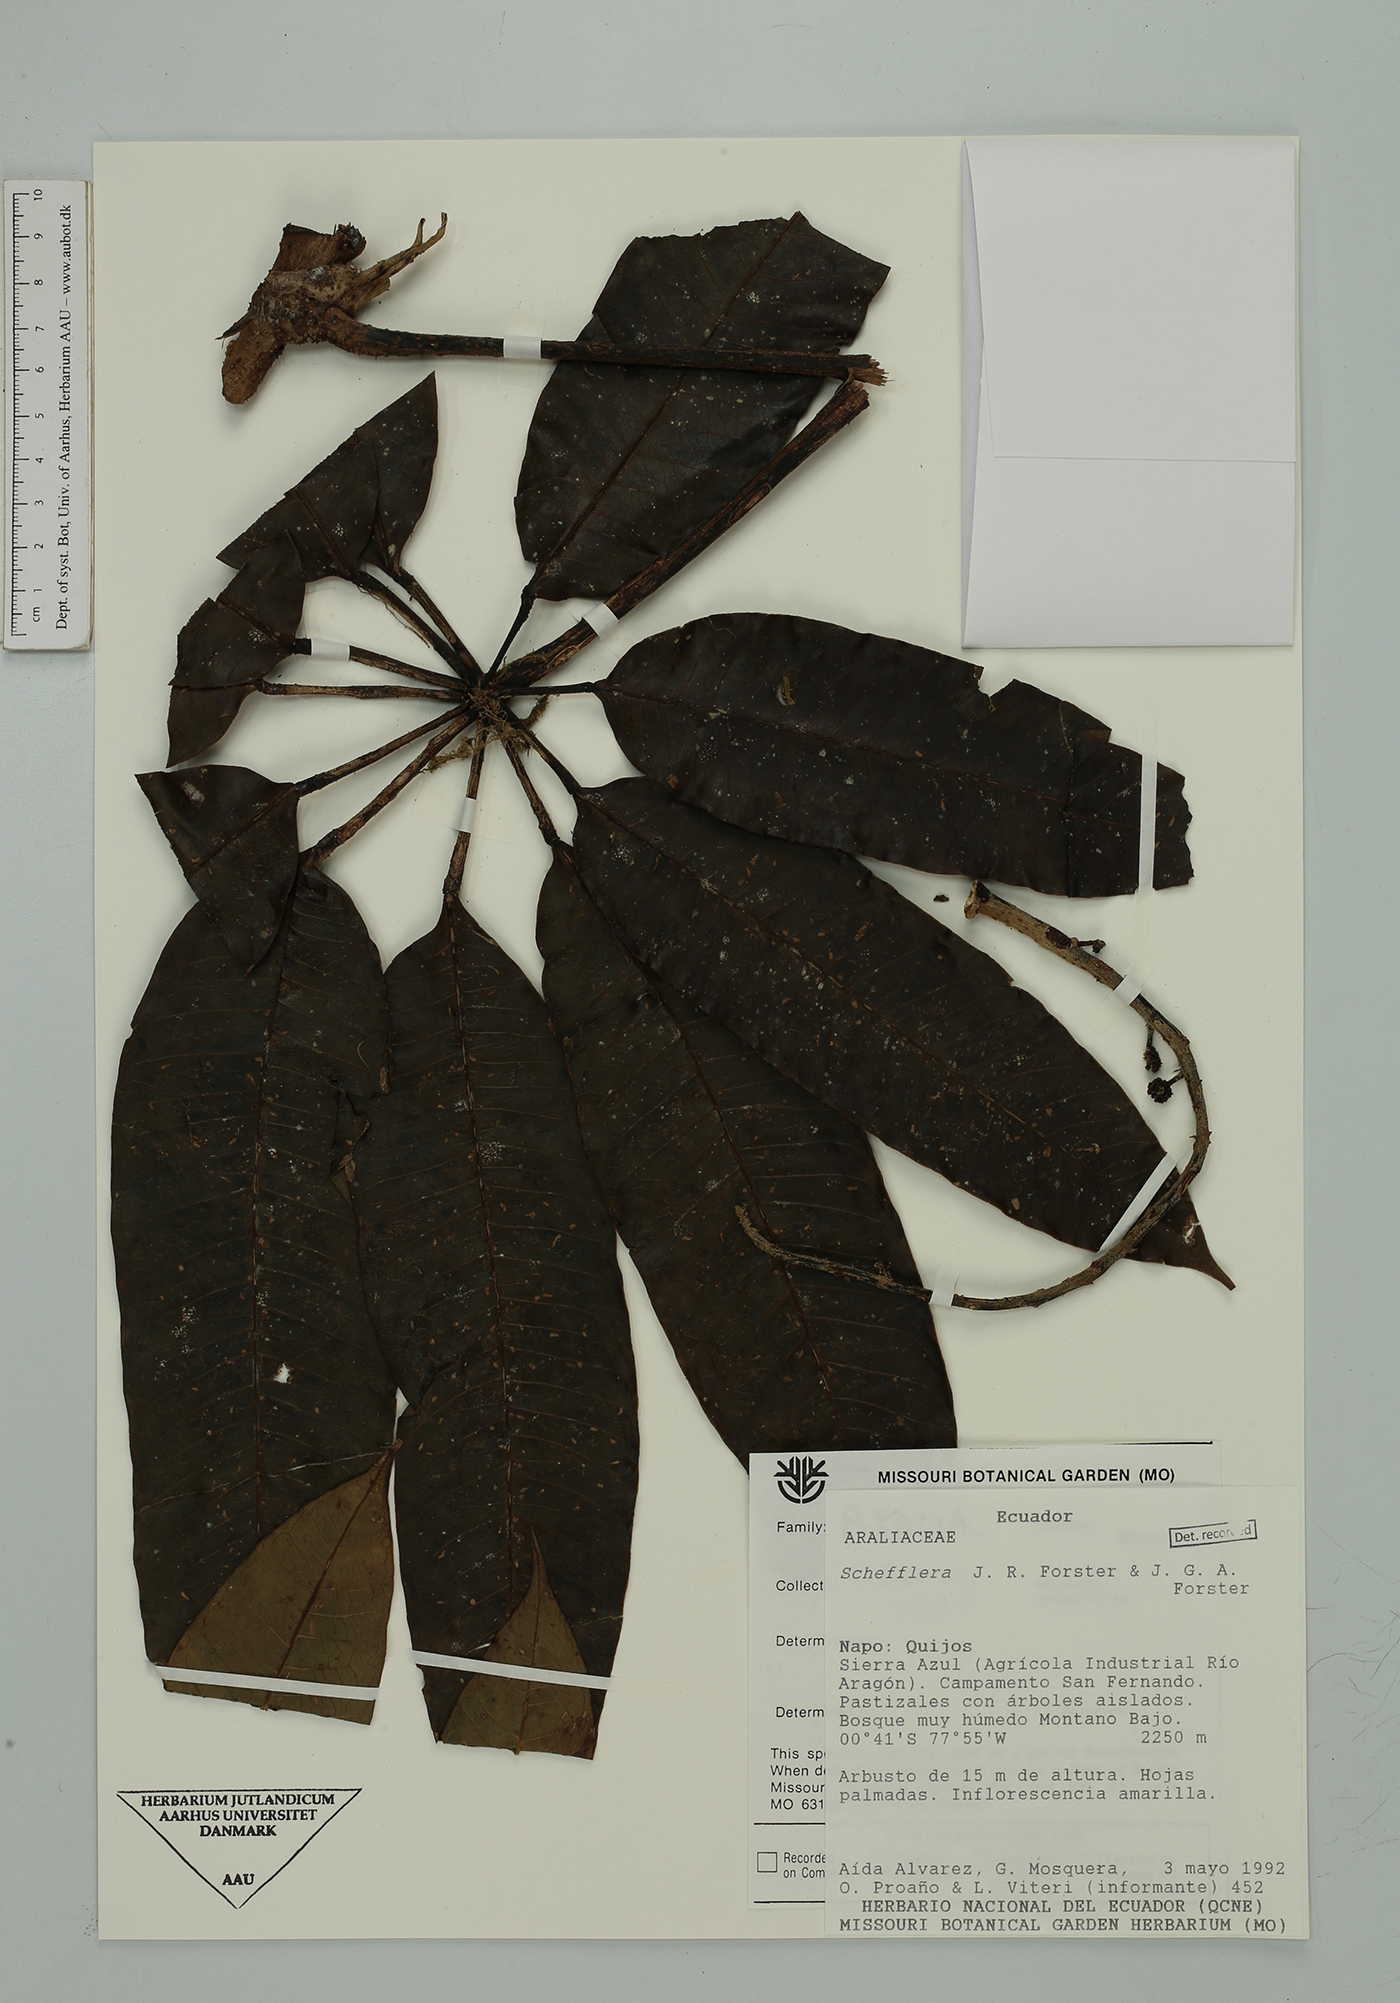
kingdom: Plantae
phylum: Tracheophyta
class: Magnoliopsida
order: Apiales
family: Araliaceae
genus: Sciodaphyllum
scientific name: Sciodaphyllum
